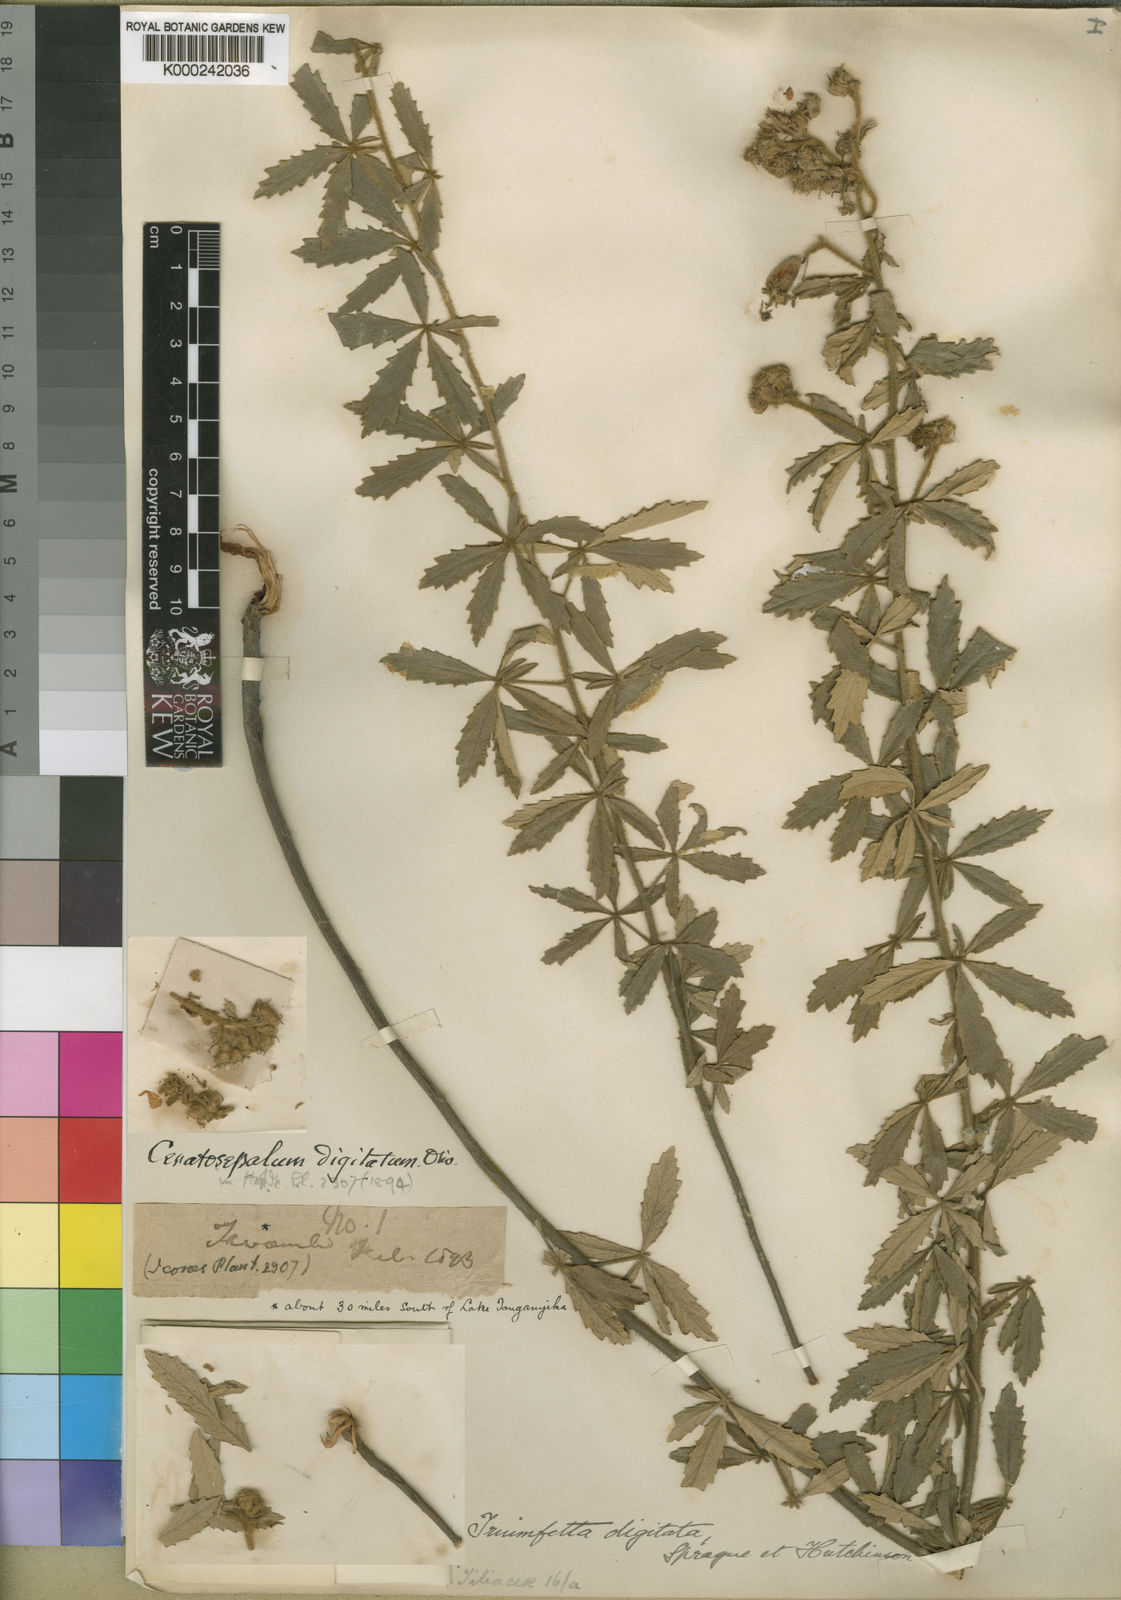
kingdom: Plantae
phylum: Tracheophyta
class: Magnoliopsida
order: Malvales
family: Malvaceae
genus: Triumfetta
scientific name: Triumfetta digitata
